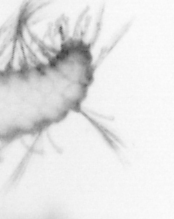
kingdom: Animalia
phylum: Arthropoda
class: Copepoda
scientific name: Copepoda
